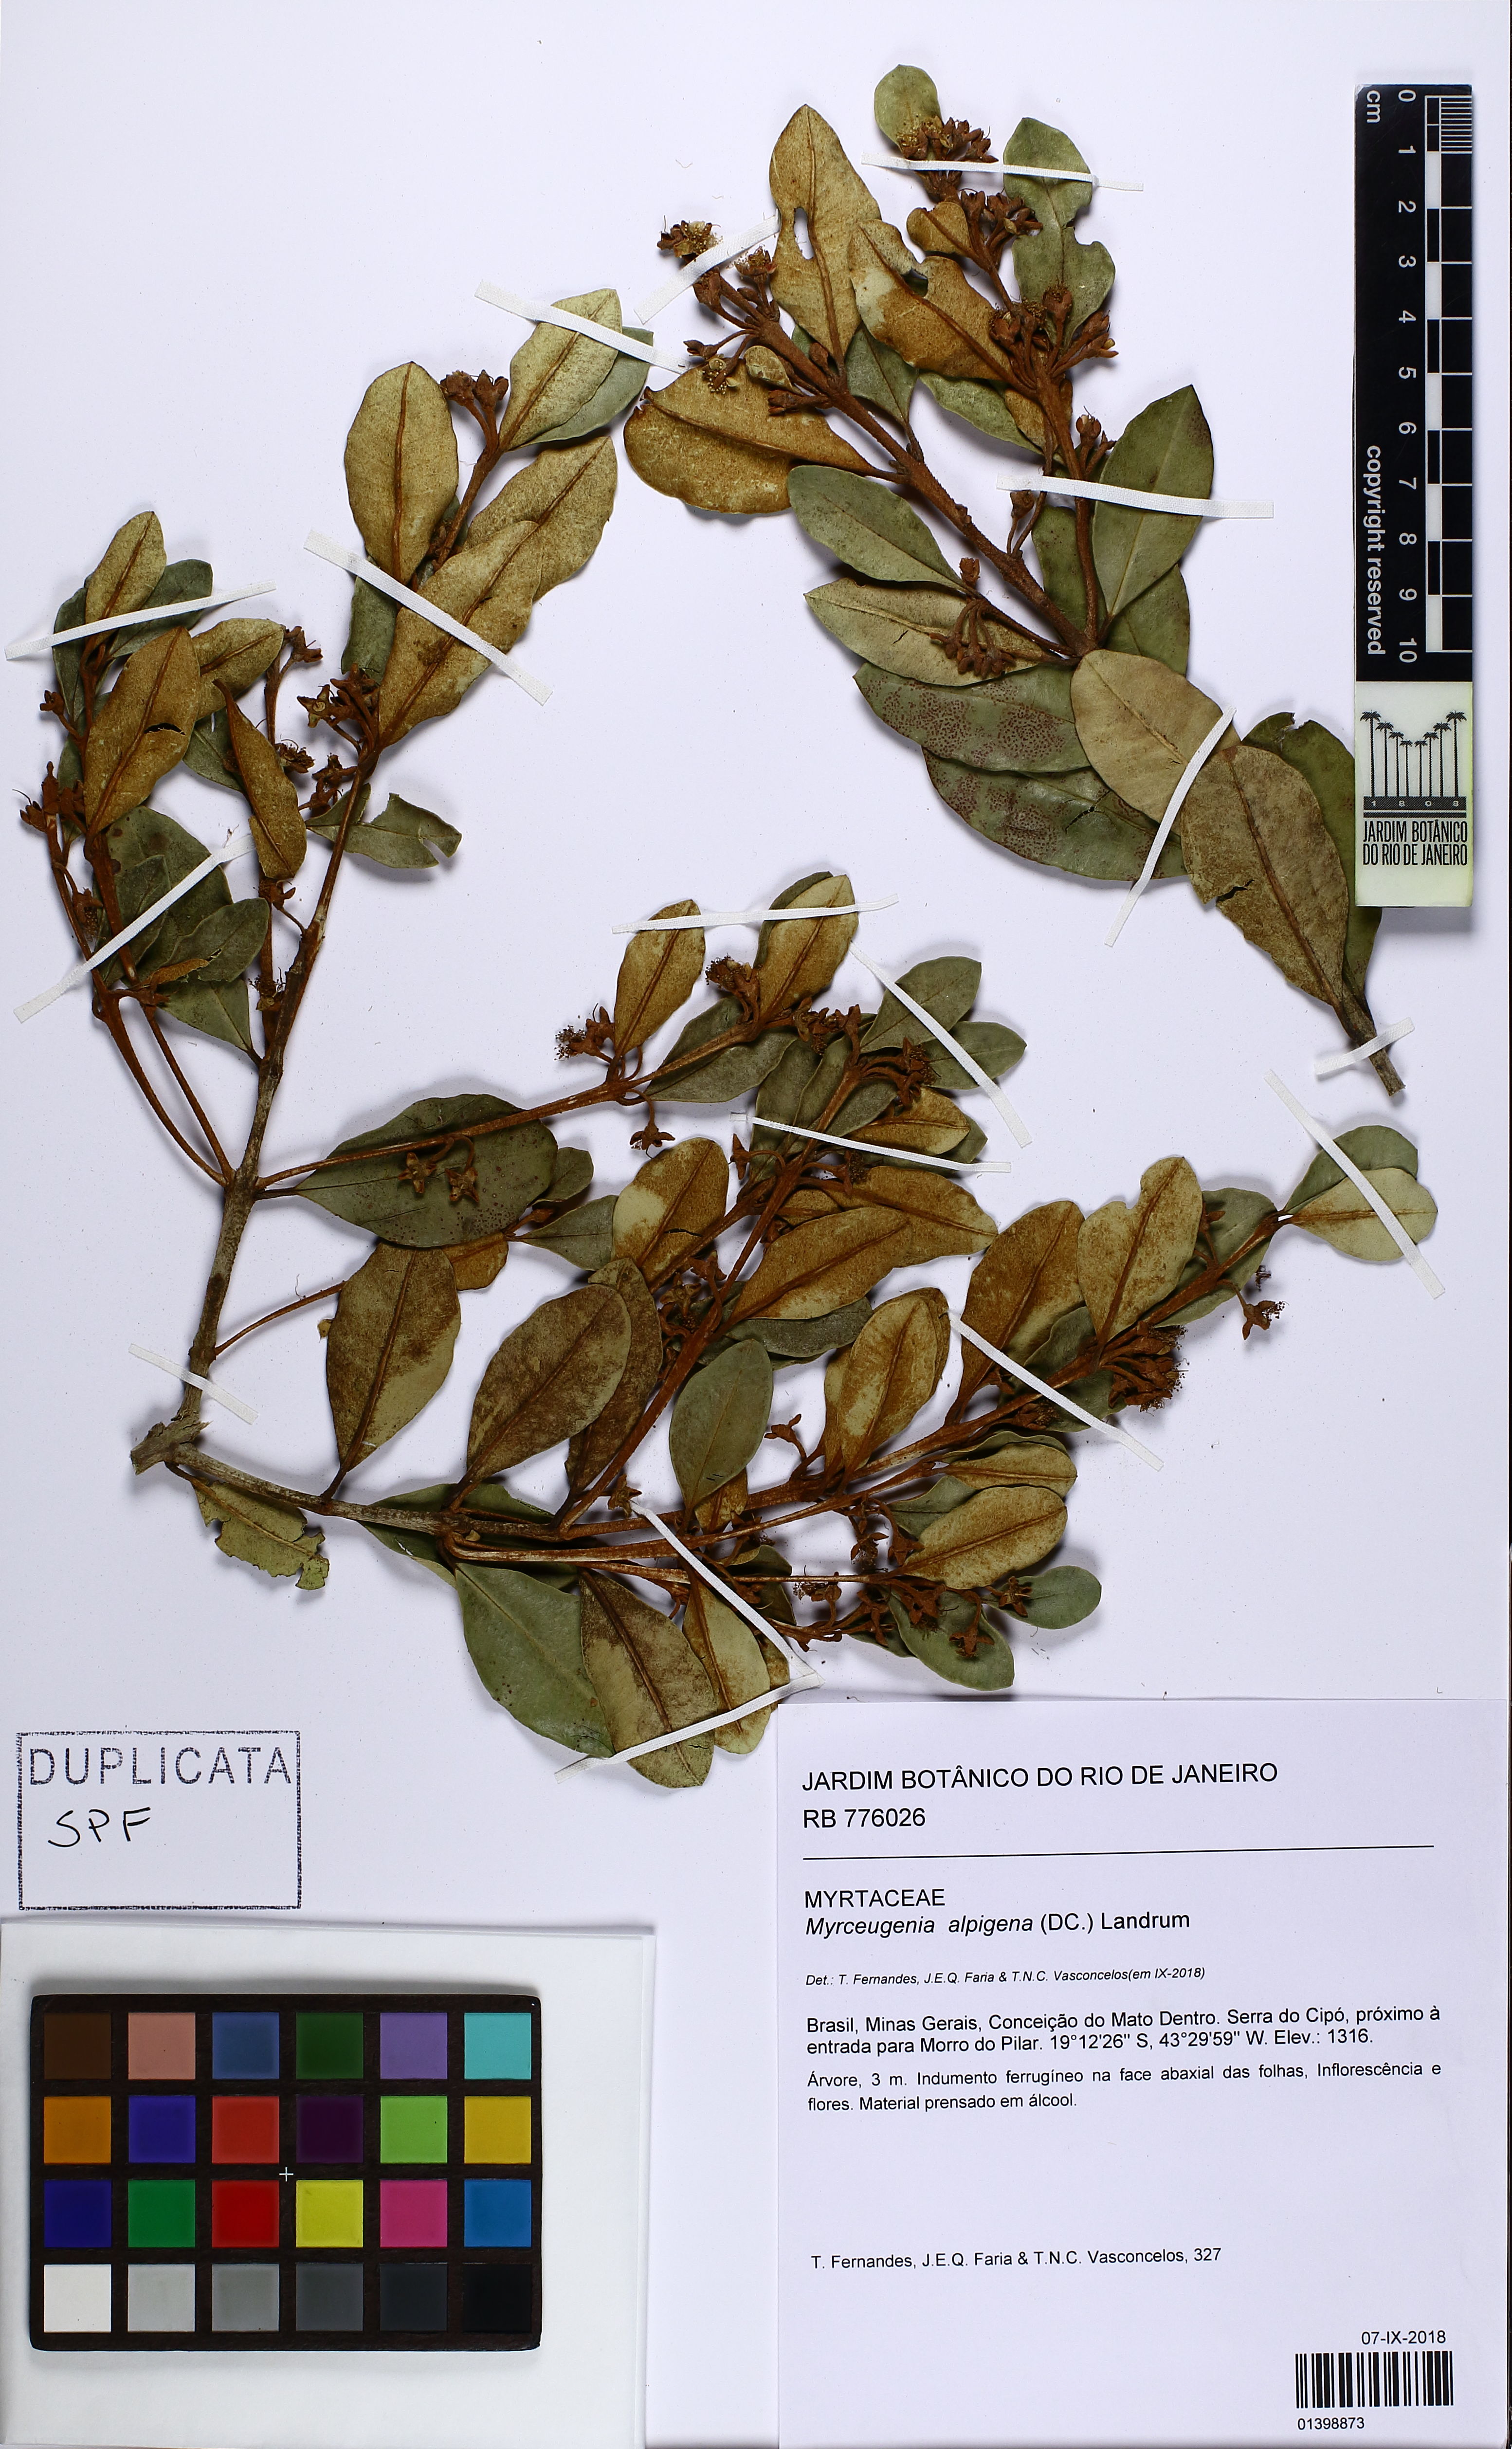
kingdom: Plantae
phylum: Tracheophyta
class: Magnoliopsida
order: Myrtales
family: Myrtaceae
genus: Myrceugenia
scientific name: Myrceugenia alpigena
